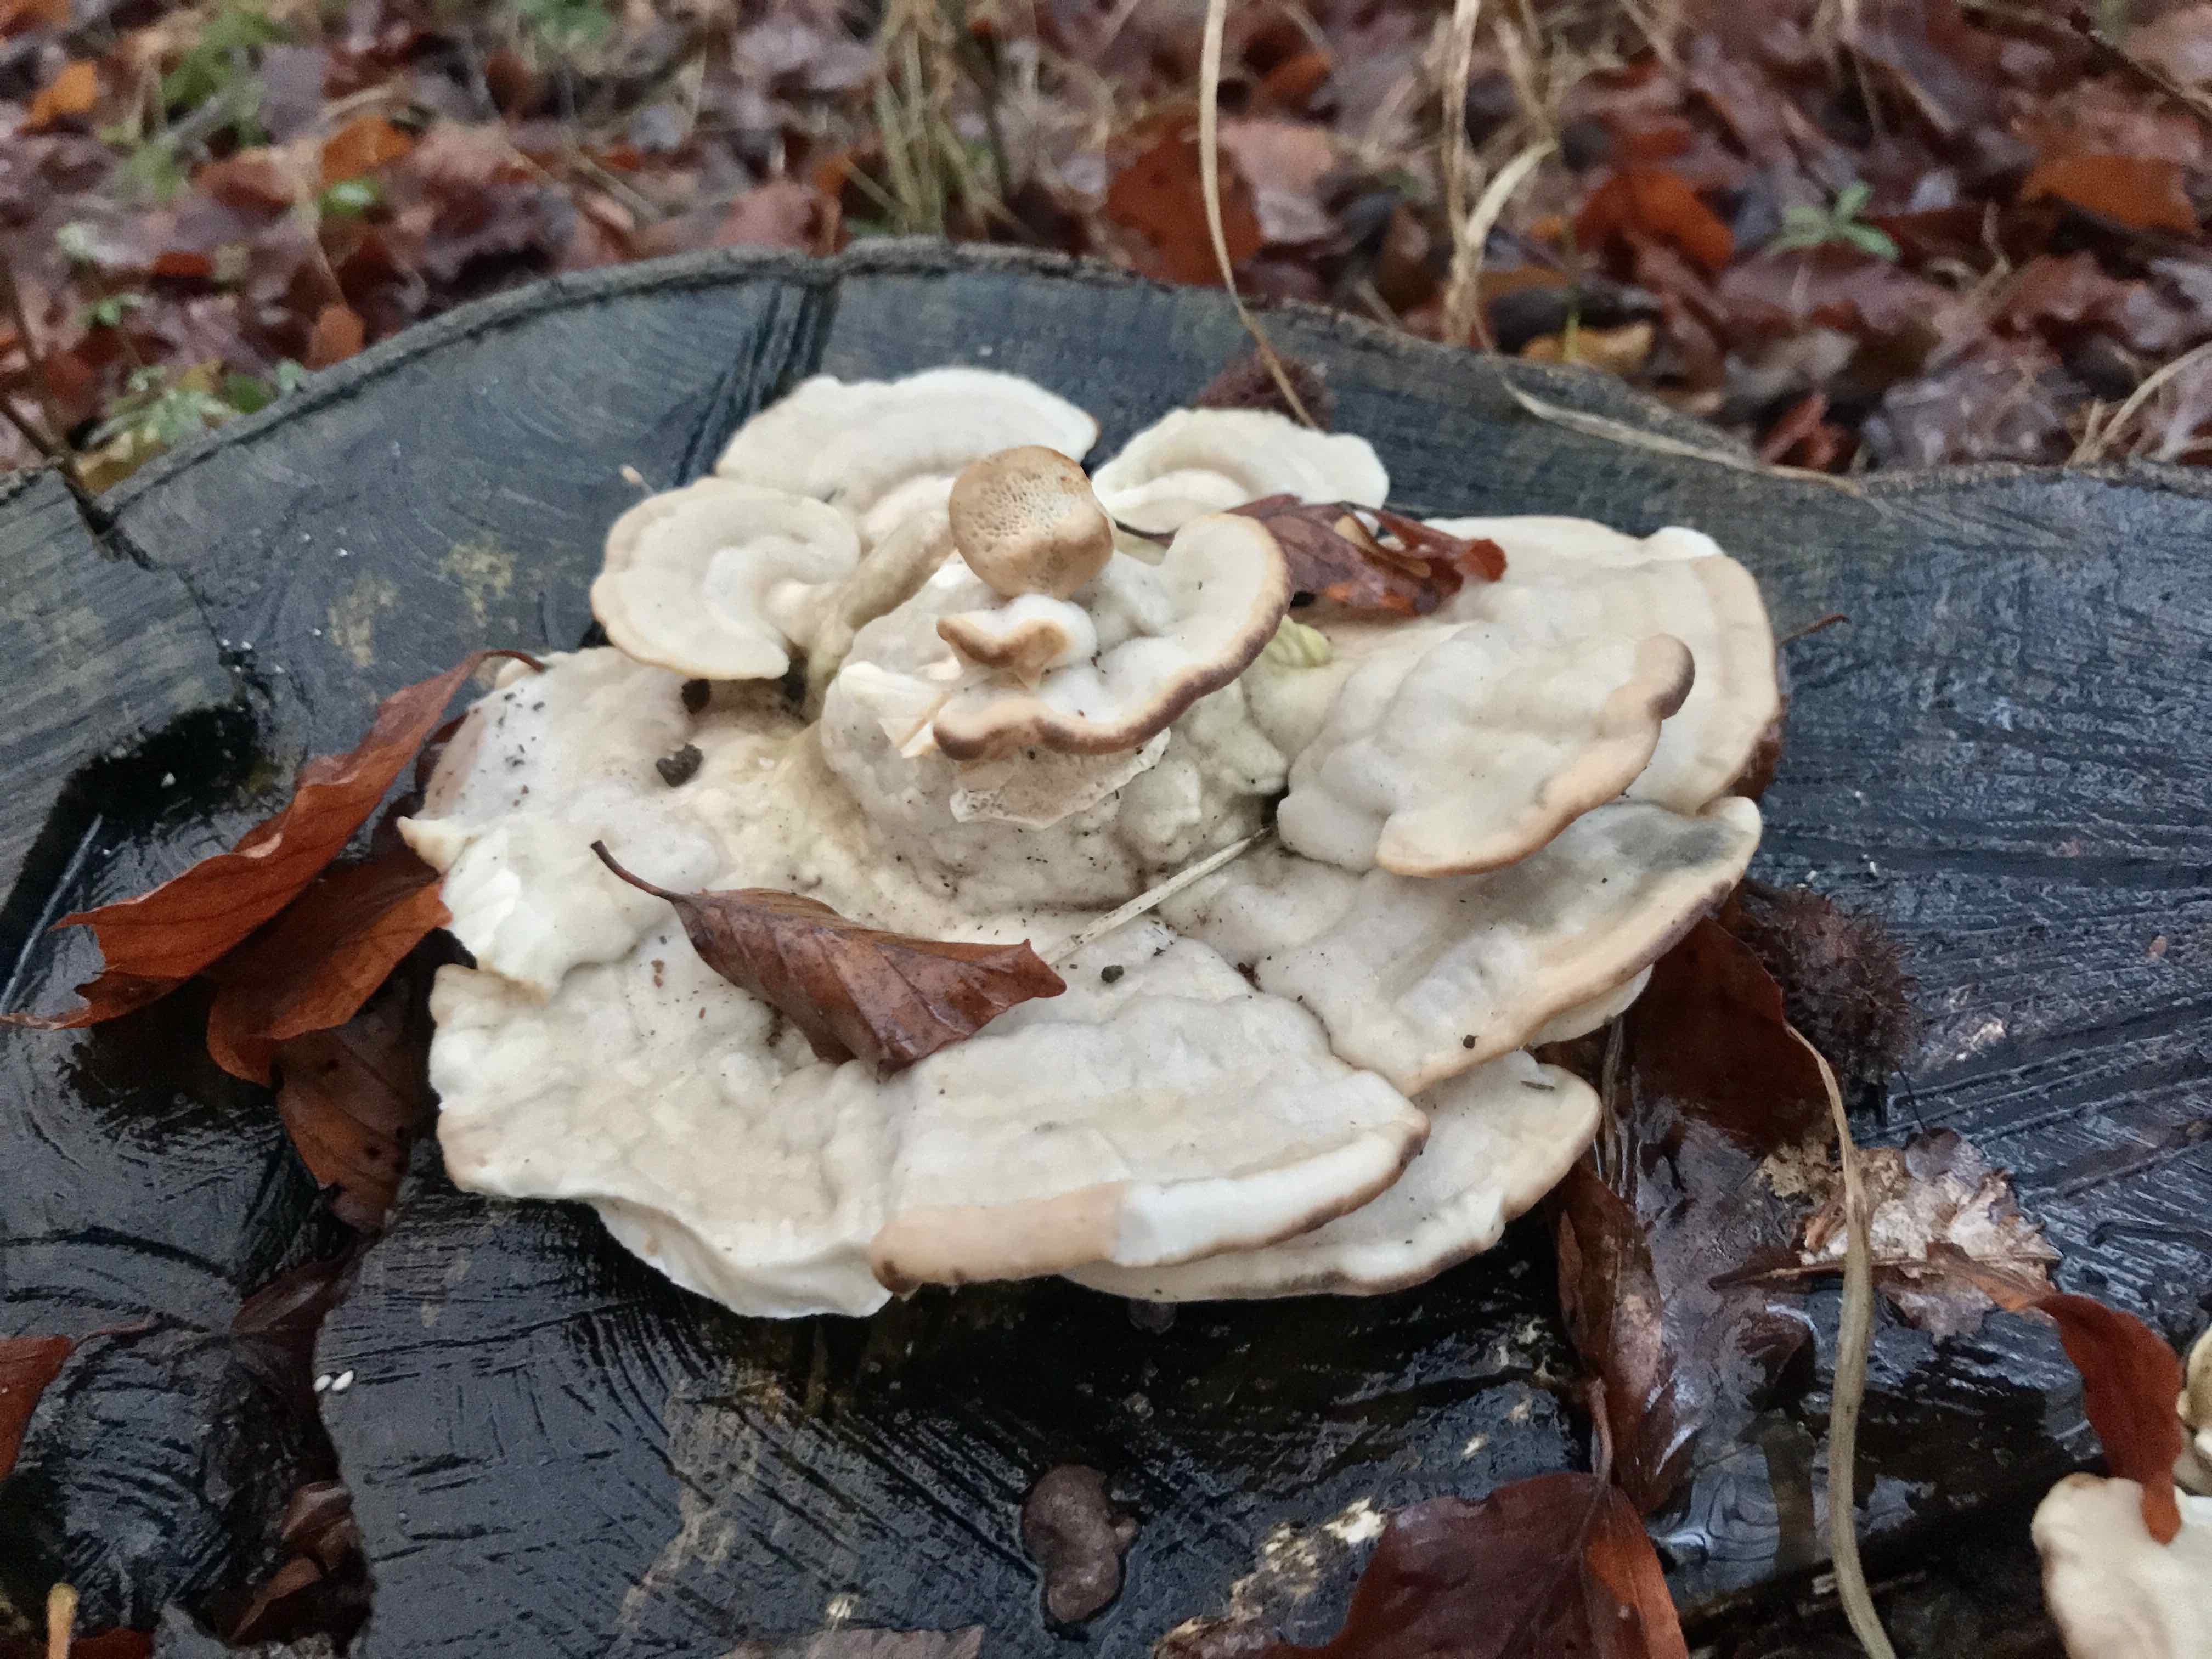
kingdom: Fungi
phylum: Basidiomycota
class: Agaricomycetes
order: Polyporales
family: Polyporaceae
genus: Trametes
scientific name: Trametes gibbosa
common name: puklet læderporesvamp
